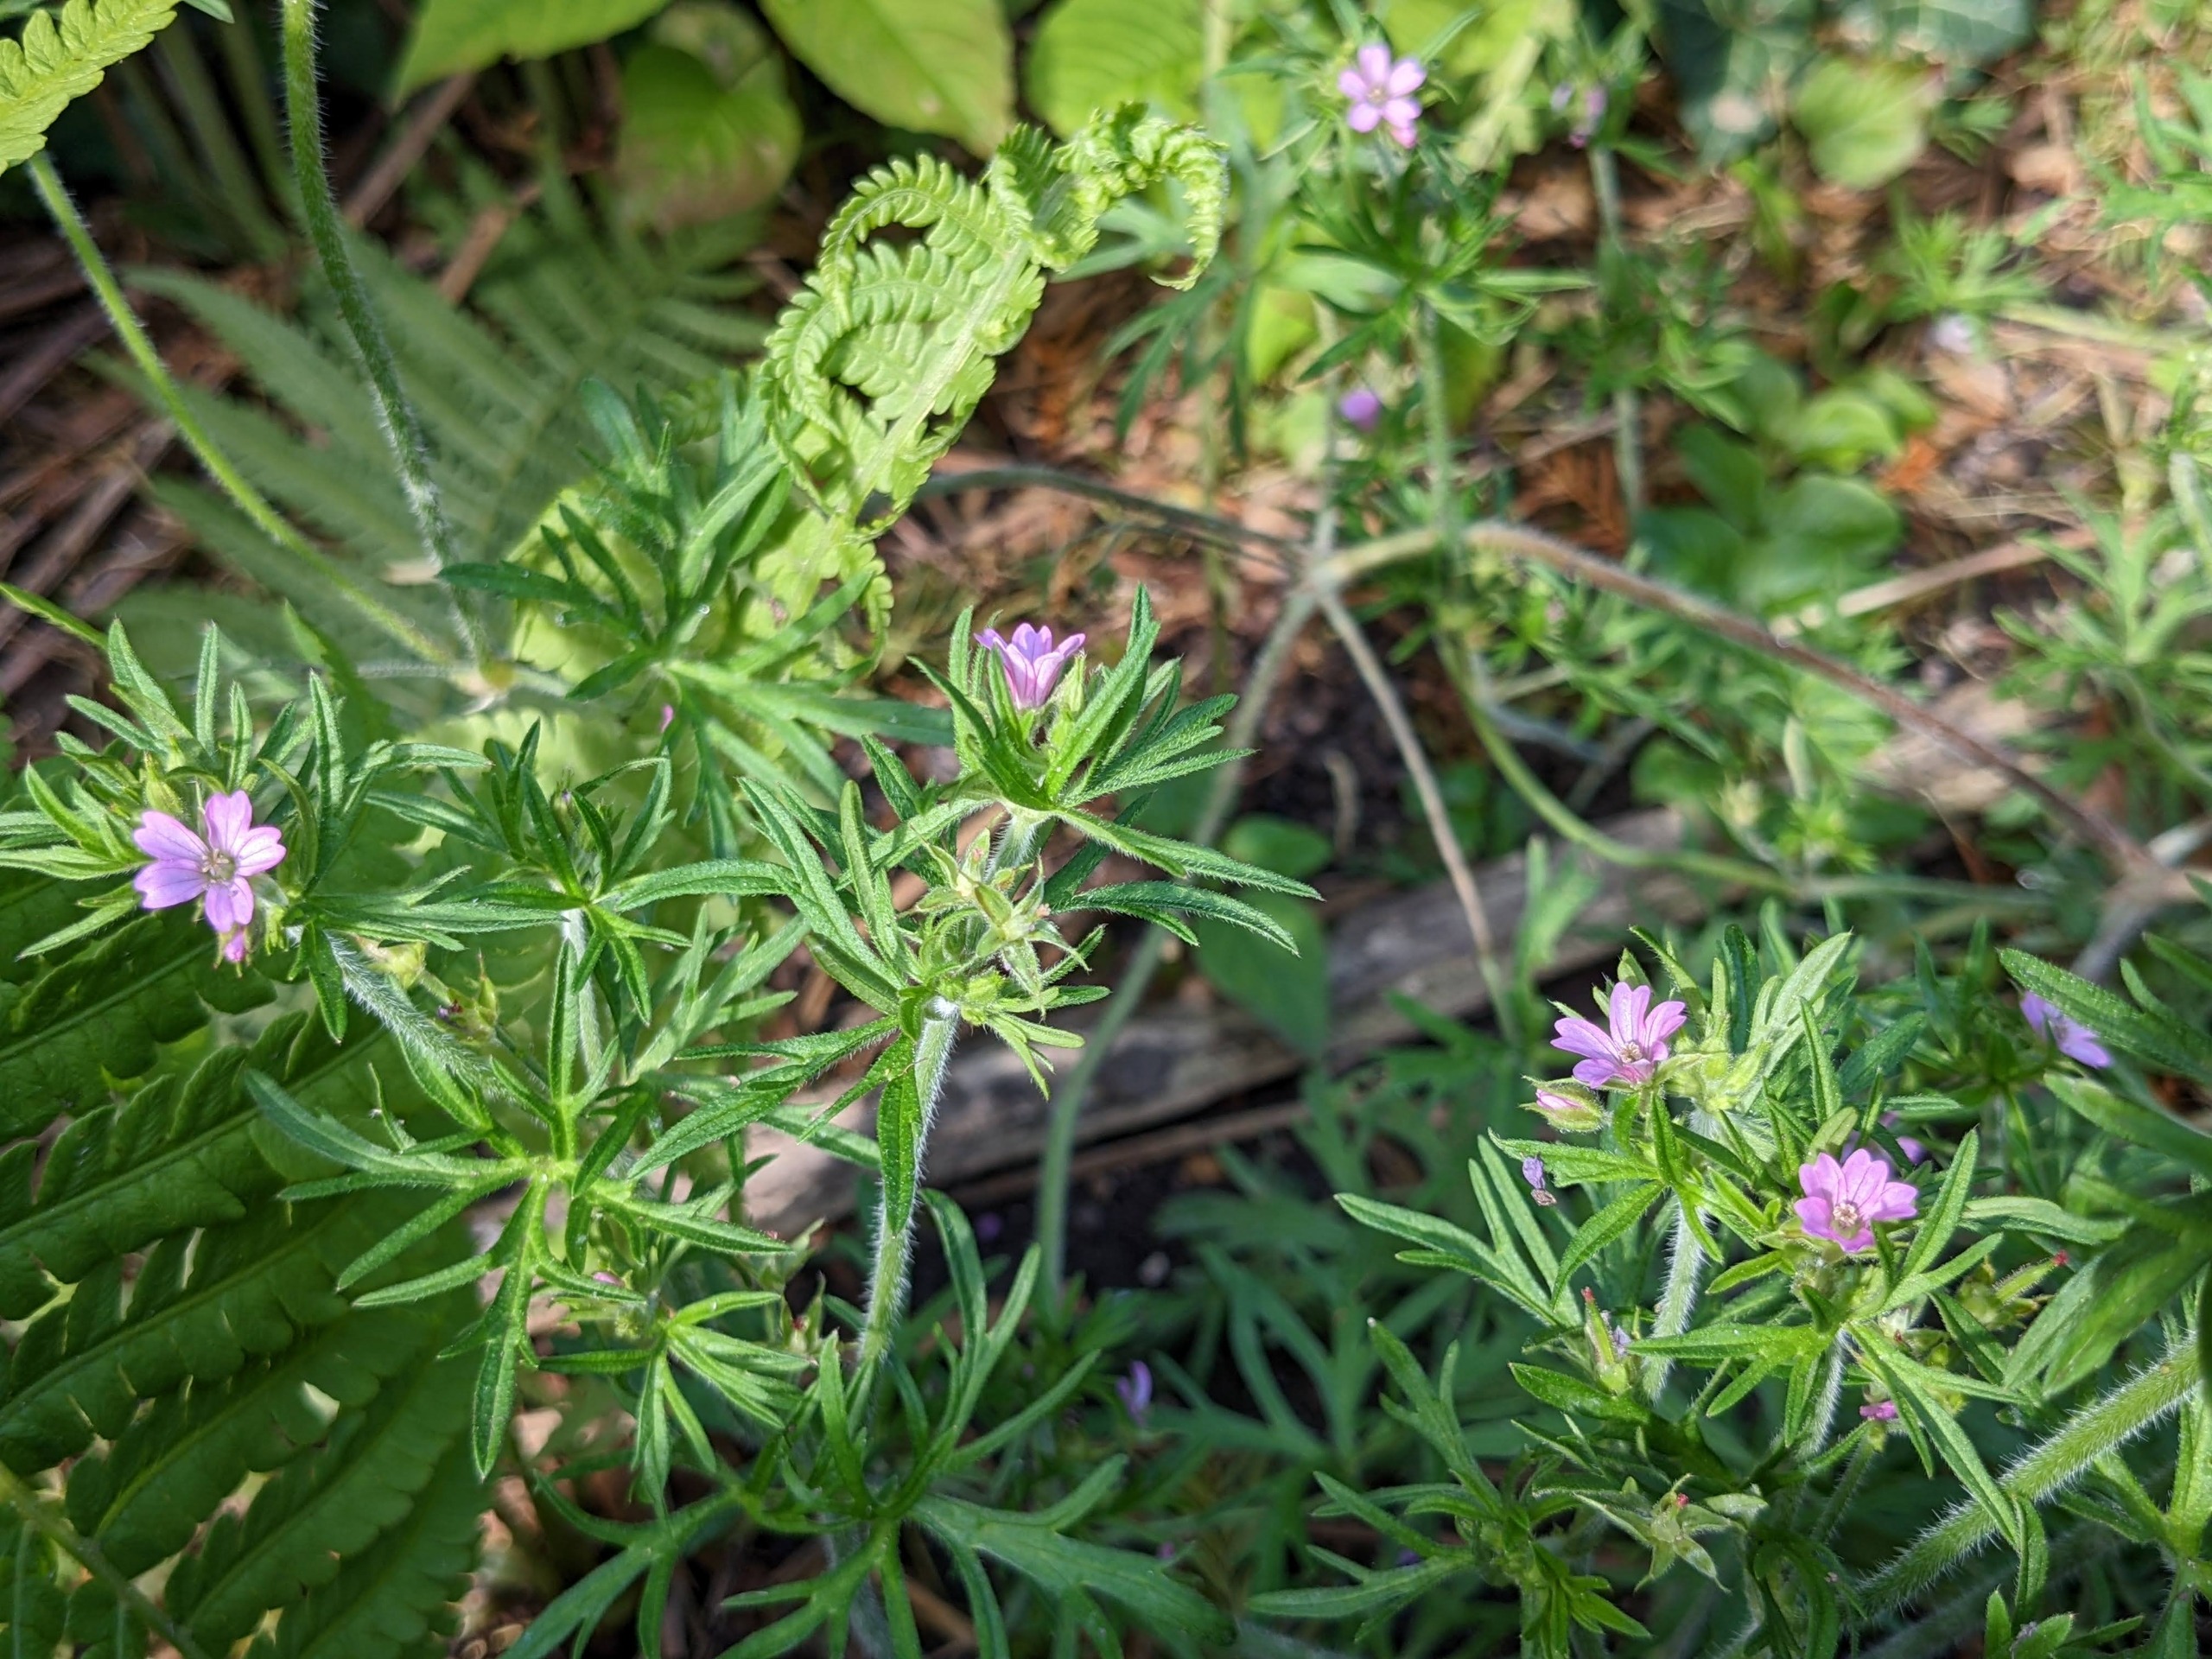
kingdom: Plantae
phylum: Tracheophyta
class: Magnoliopsida
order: Geraniales
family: Geraniaceae
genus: Geranium
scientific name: Geranium dissectum
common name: Kløftet storkenæb
